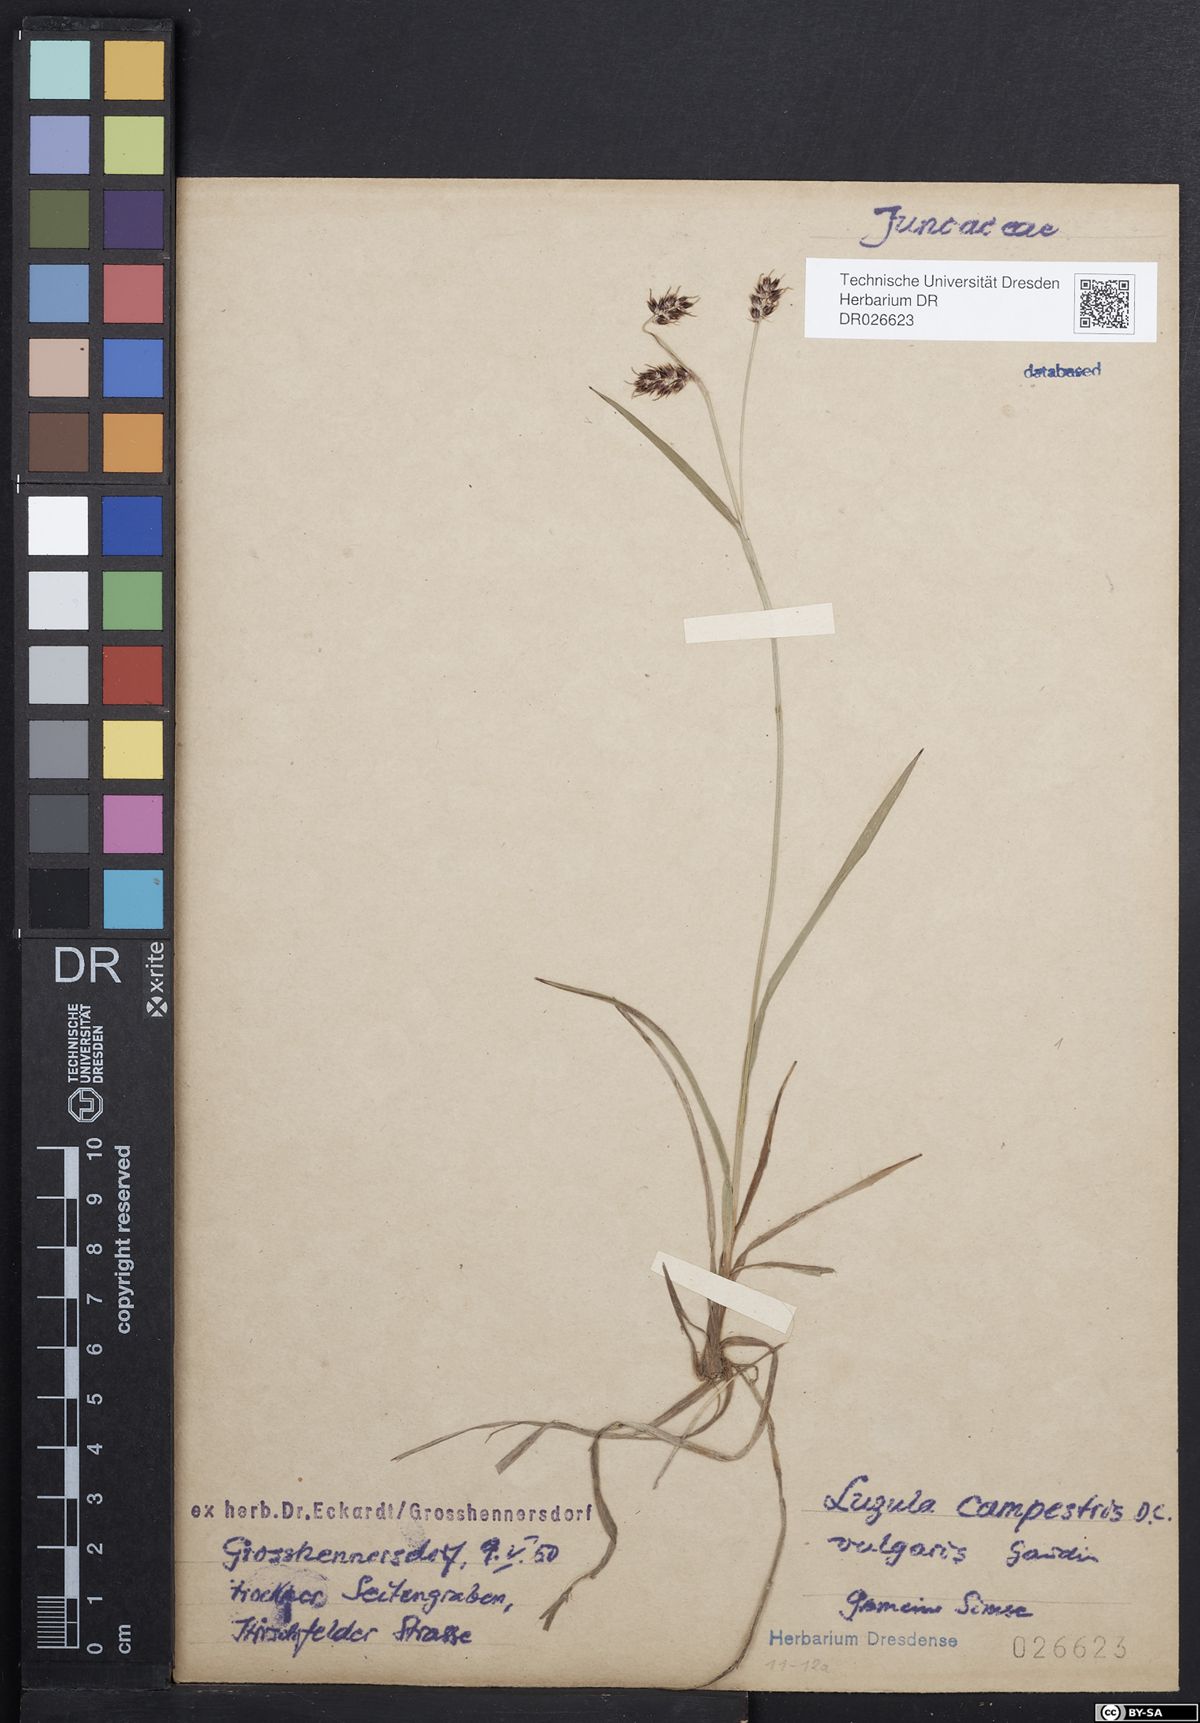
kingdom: Plantae
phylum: Tracheophyta
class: Liliopsida
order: Poales
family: Juncaceae
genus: Luzula
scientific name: Luzula campestris
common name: Field wood-rush
